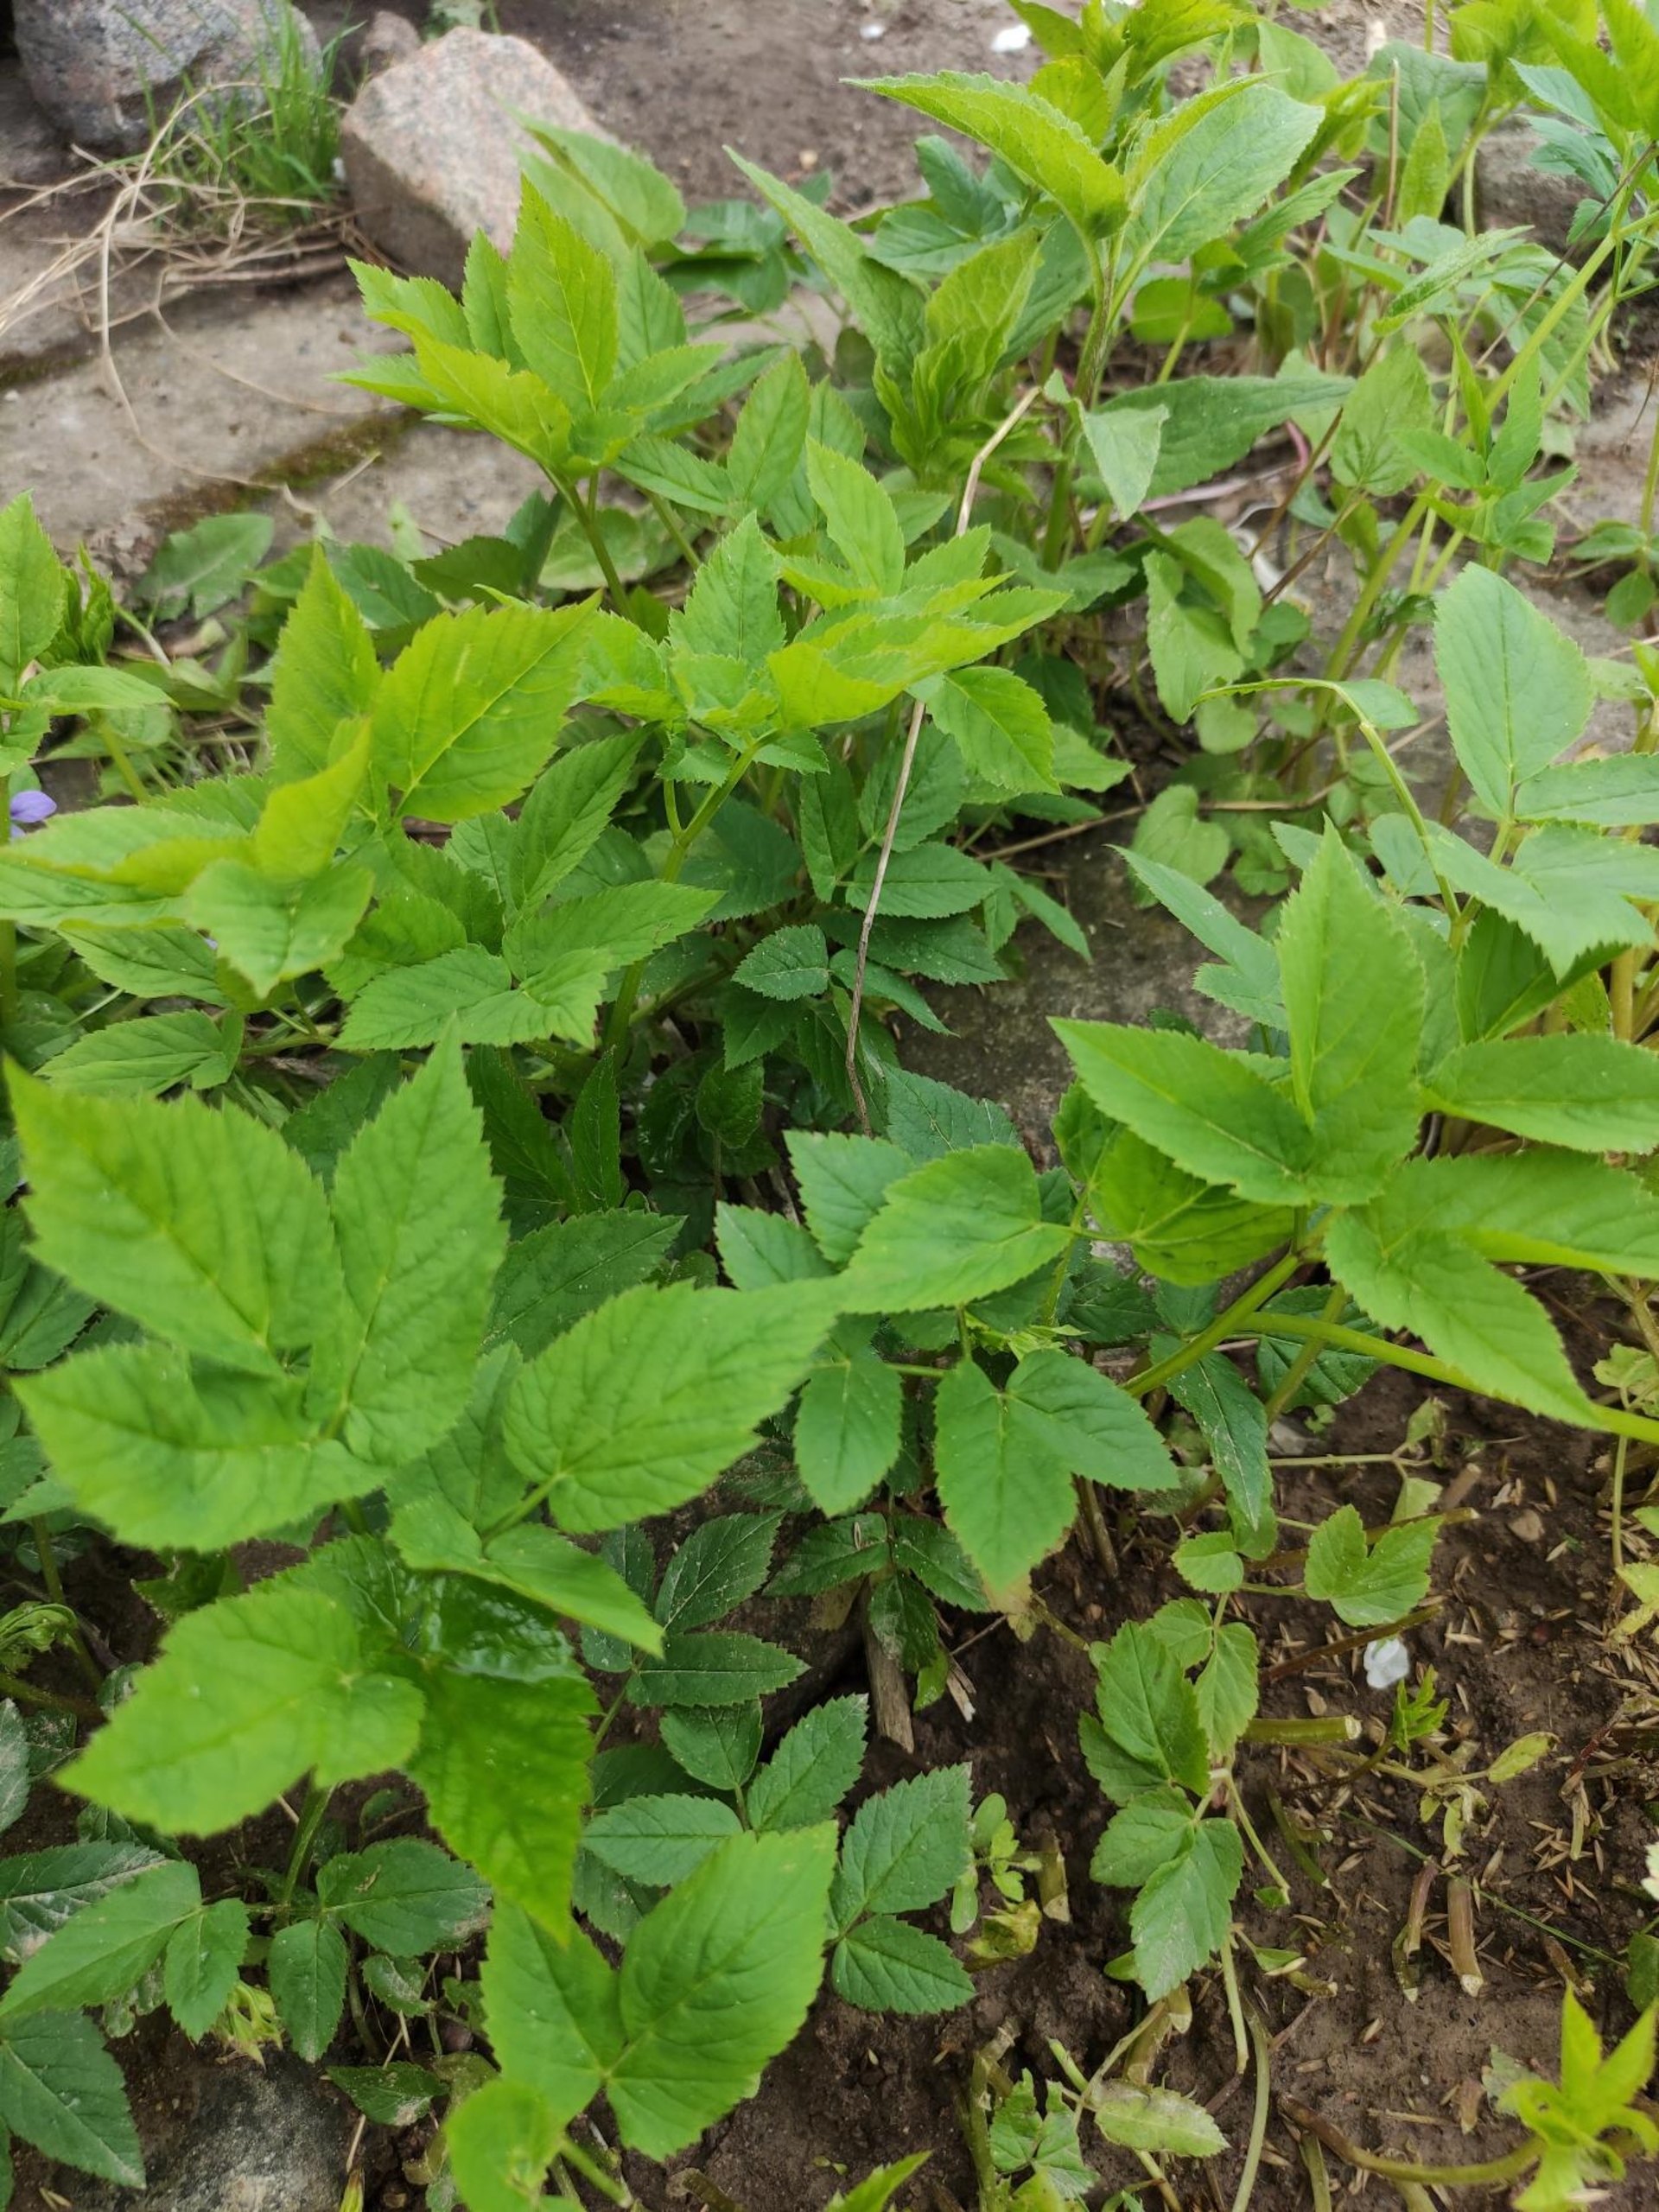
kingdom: Plantae
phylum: Tracheophyta
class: Magnoliopsida
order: Apiales
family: Apiaceae
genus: Aegopodium
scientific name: Aegopodium podagraria
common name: Skvalderkål
